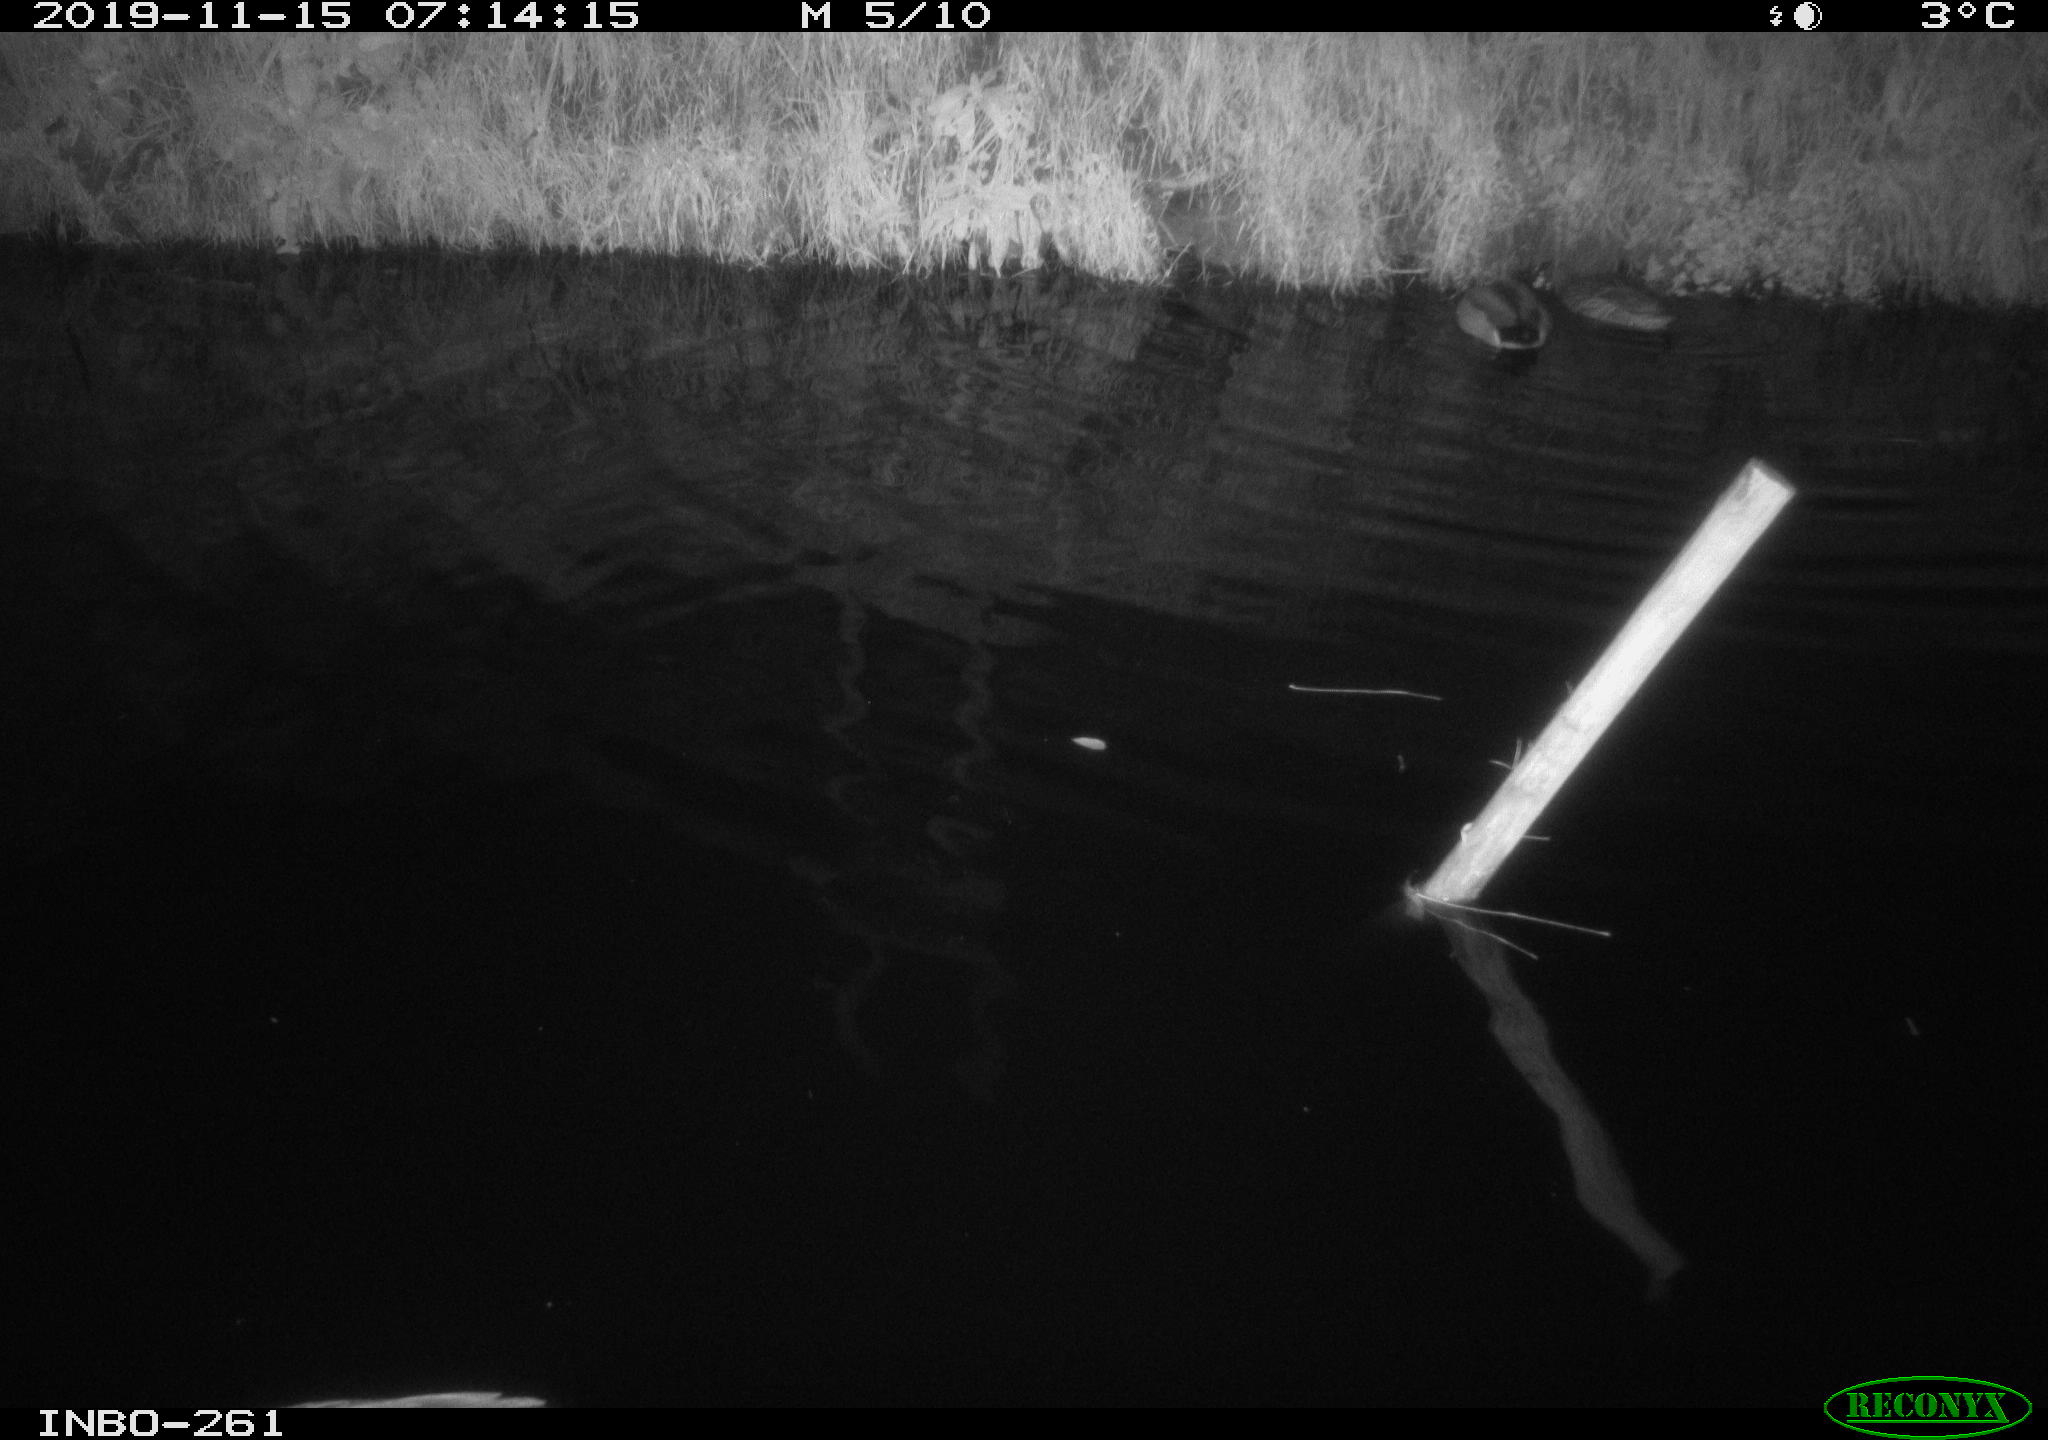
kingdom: Animalia
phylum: Chordata
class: Aves
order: Anseriformes
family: Anatidae
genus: Anas
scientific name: Anas platyrhynchos
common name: Mallard
